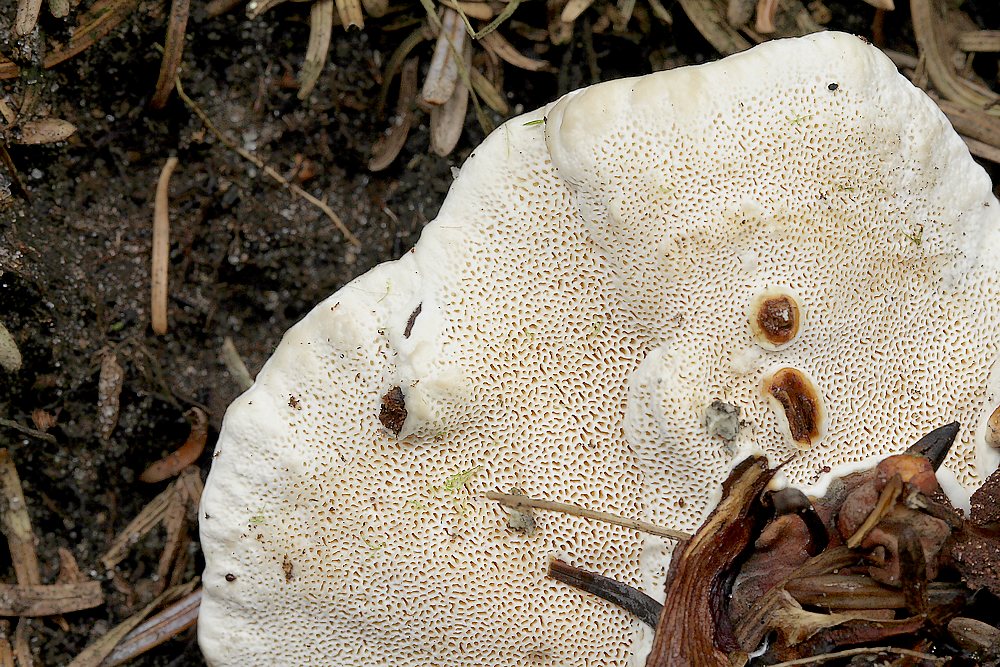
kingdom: Fungi
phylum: Basidiomycota
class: Agaricomycetes
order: Russulales
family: Bondarzewiaceae
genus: Heterobasidion
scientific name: Heterobasidion annosum
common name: almindelig rodfordærver
